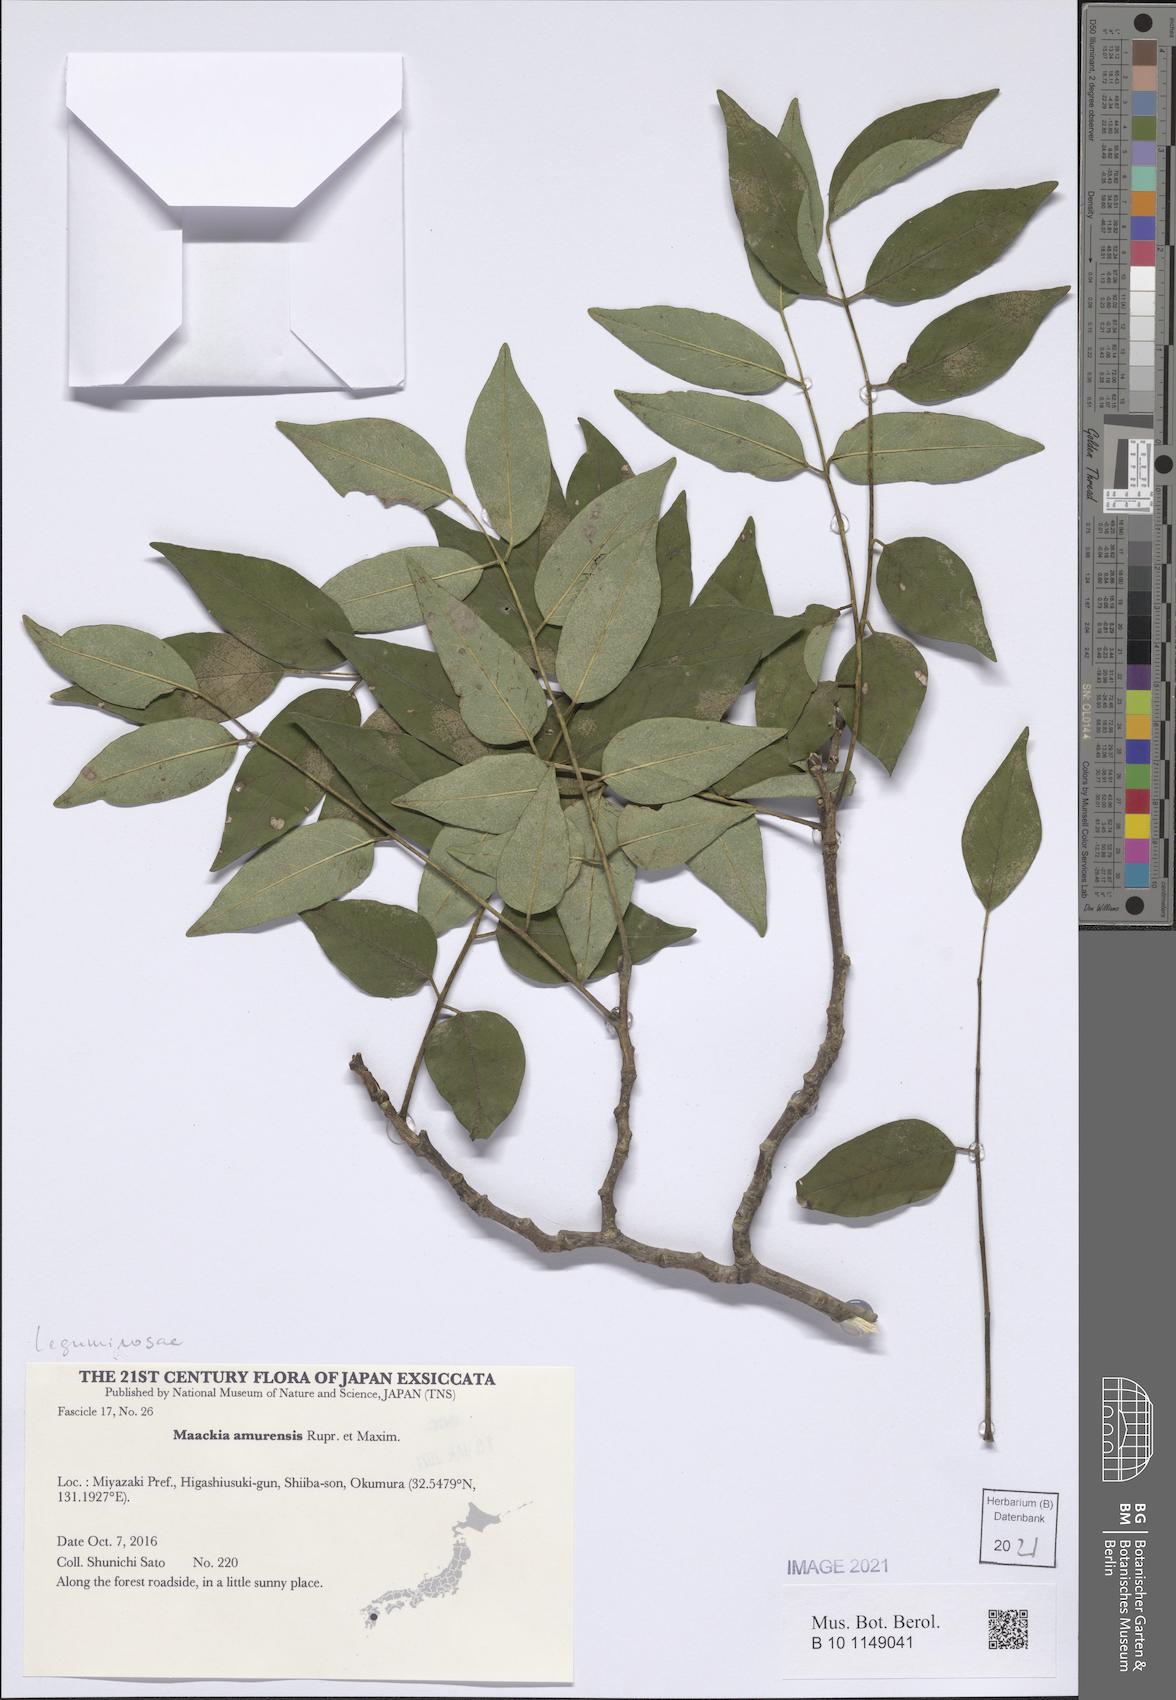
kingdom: Plantae
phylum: Tracheophyta
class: Magnoliopsida
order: Fabales
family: Fabaceae
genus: Maackia
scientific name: Maackia amurensis
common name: Amur maackia
